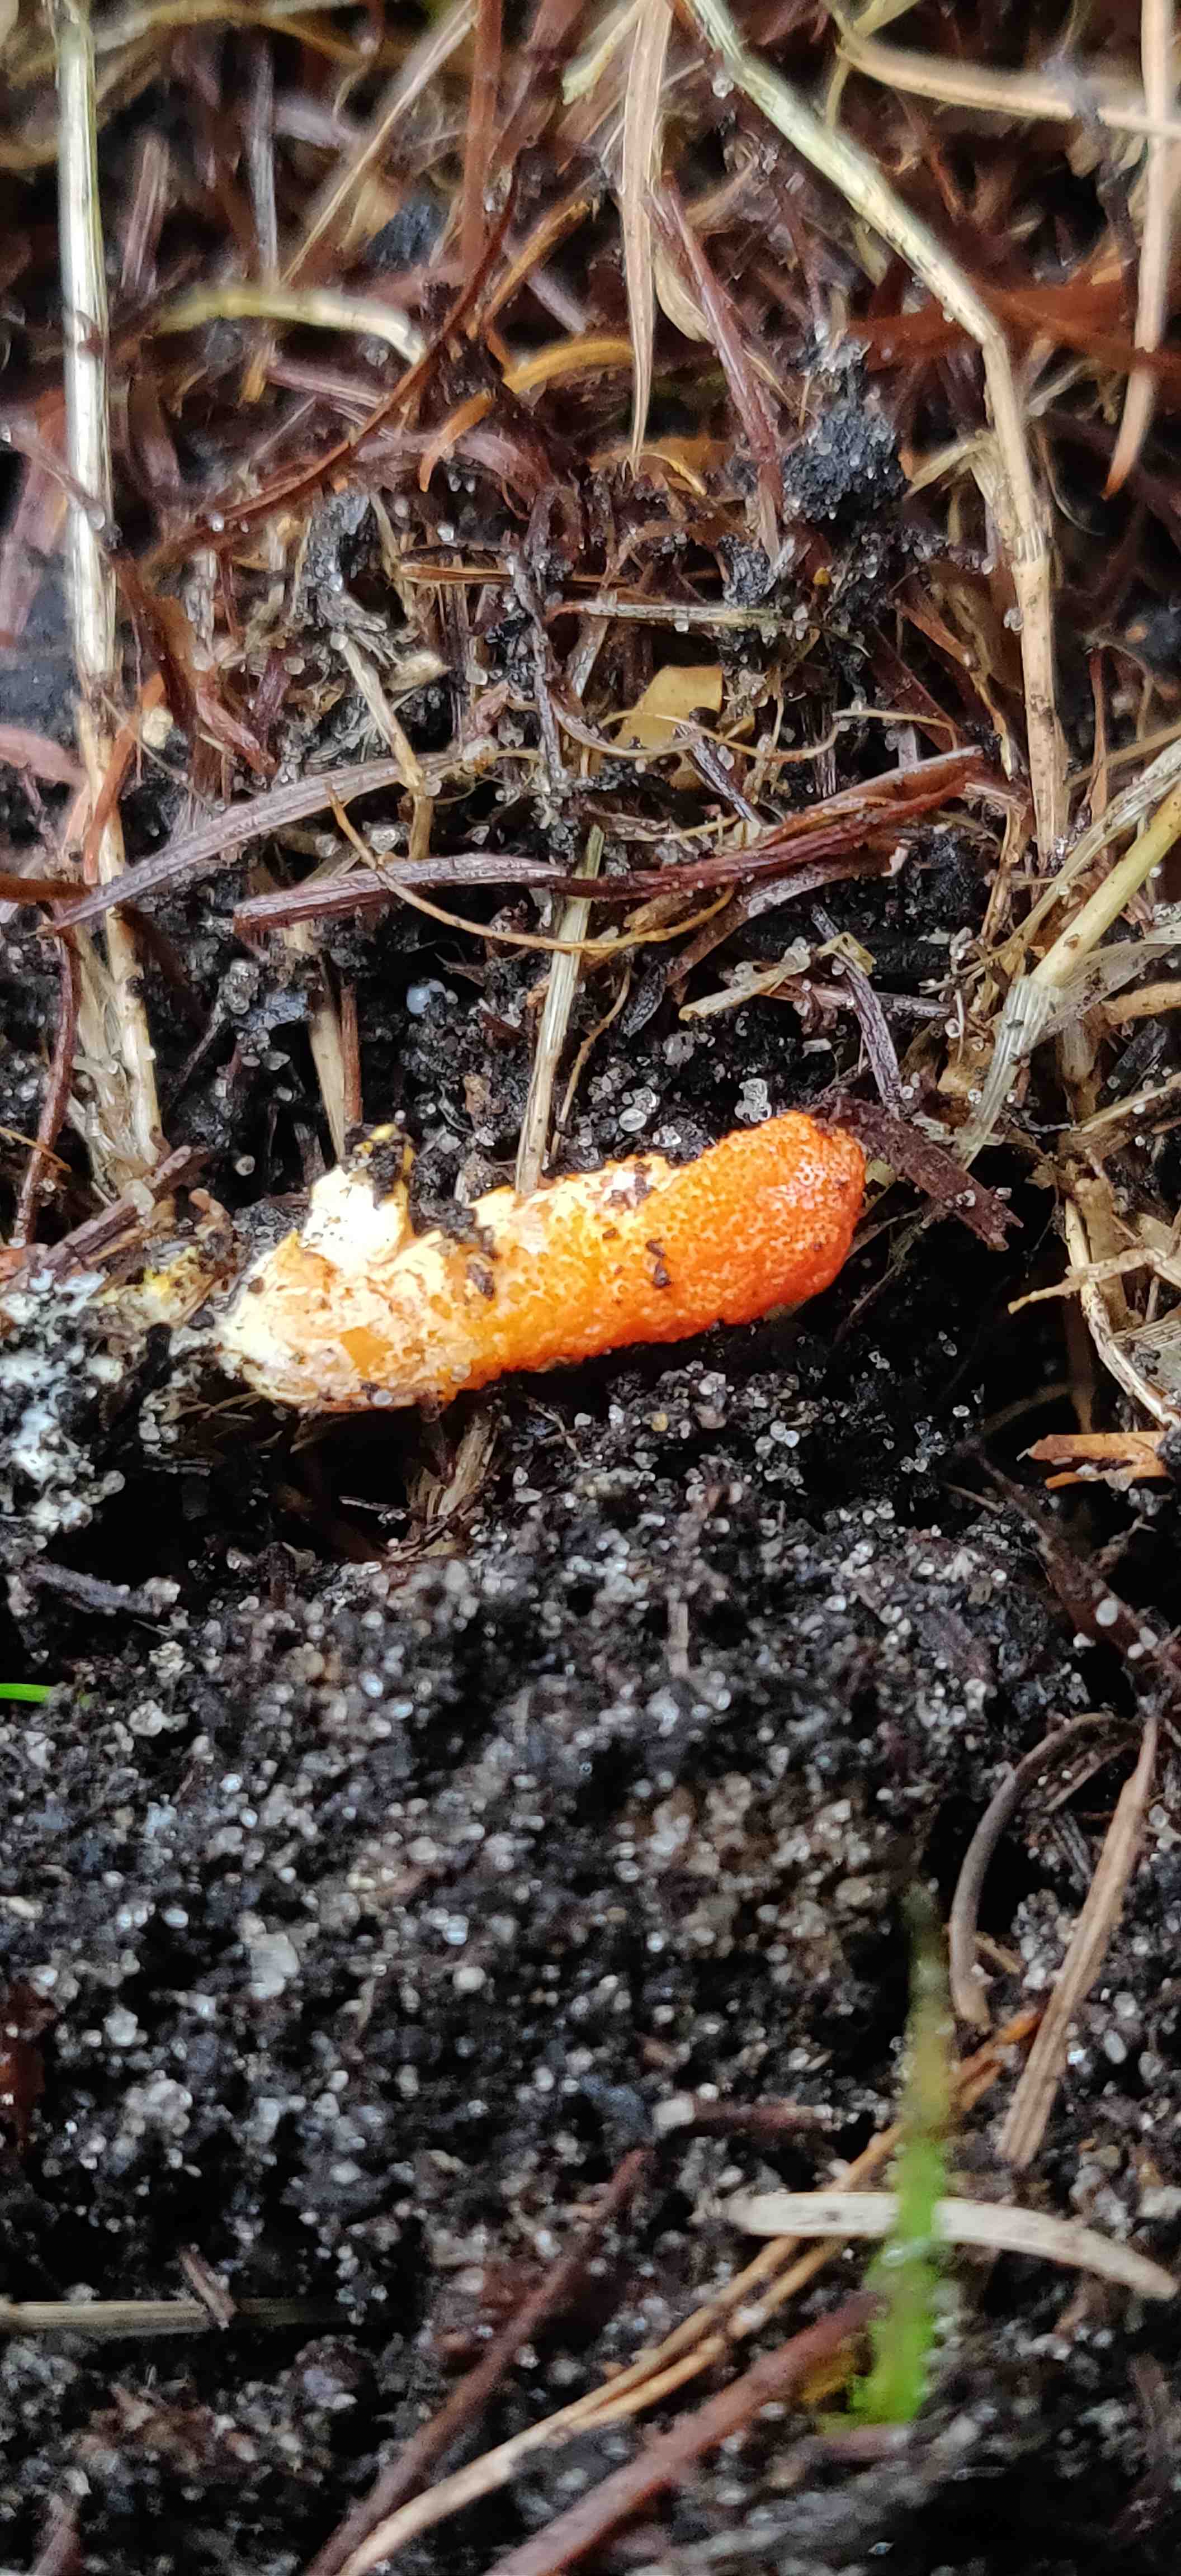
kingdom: Fungi
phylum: Ascomycota
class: Sordariomycetes
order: Hypocreales
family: Cordycipitaceae
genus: Cordyceps
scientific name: Cordyceps militaris
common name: puppe-snyltekølle
